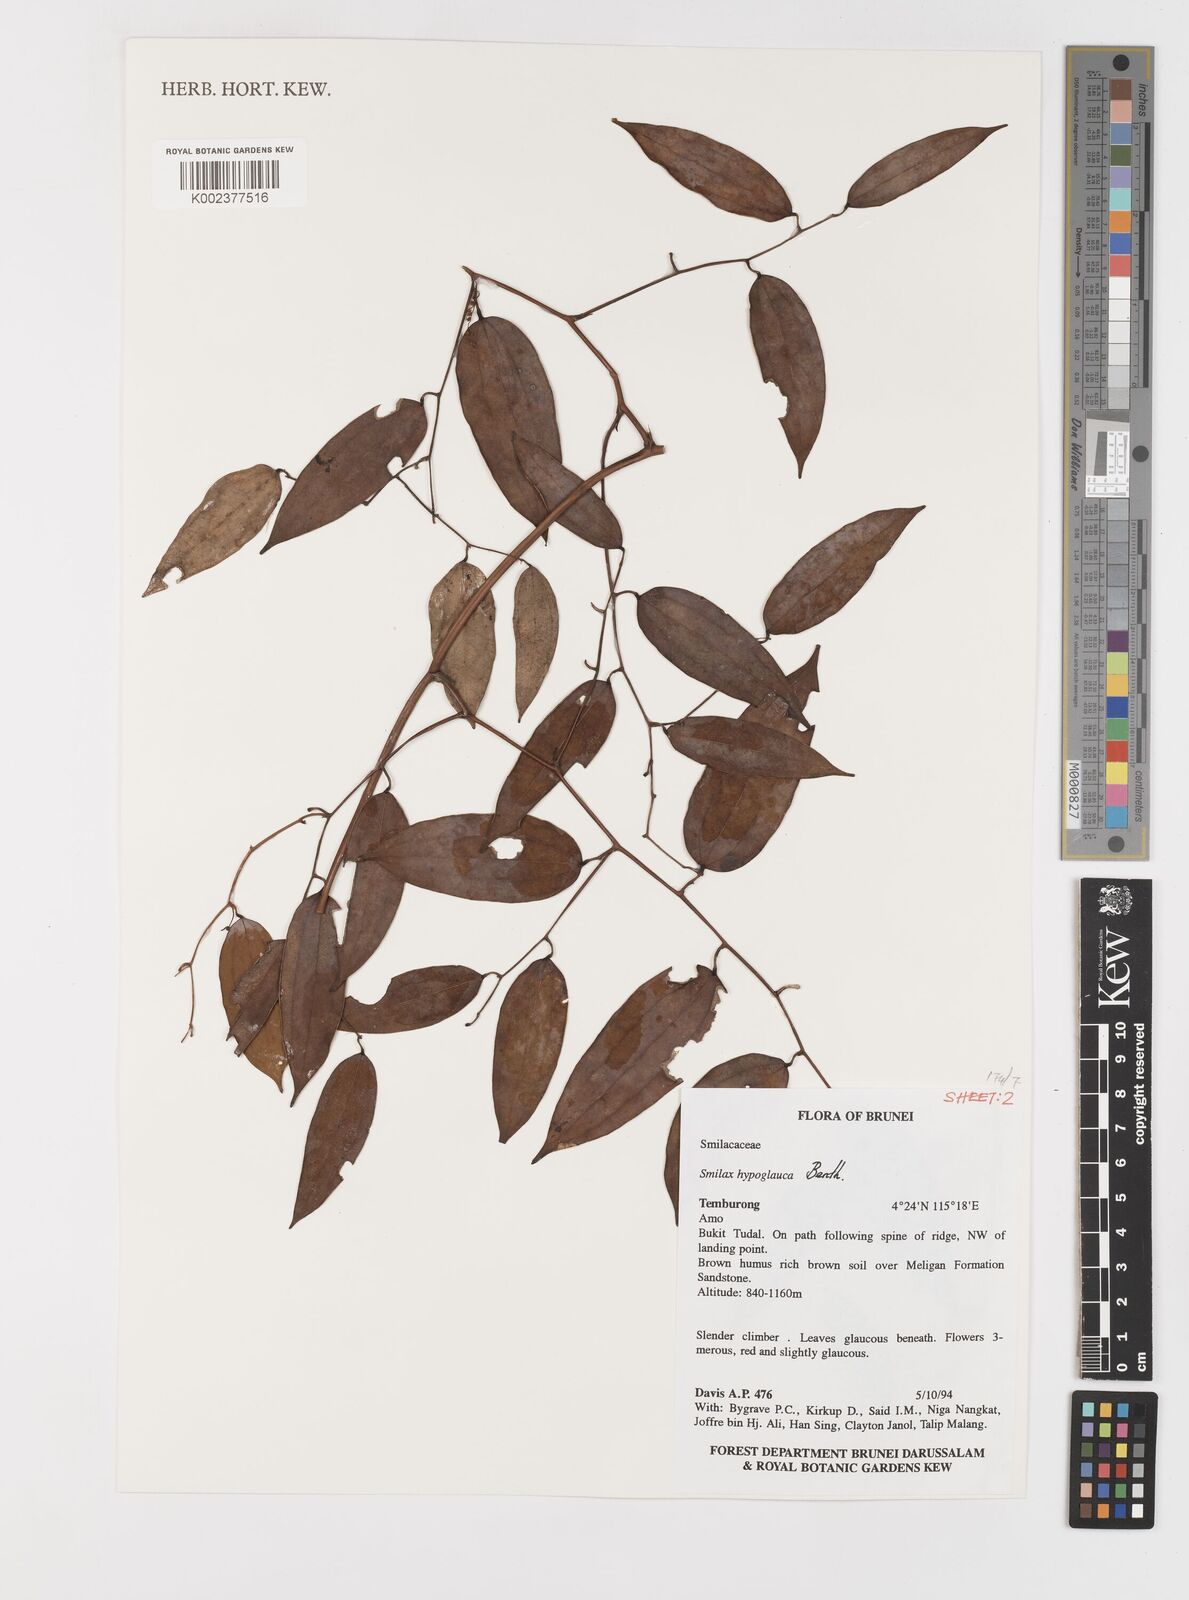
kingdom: Plantae
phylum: Tracheophyta
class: Liliopsida
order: Liliales
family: Smilacaceae
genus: Smilax
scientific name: Smilax hypoglauca
